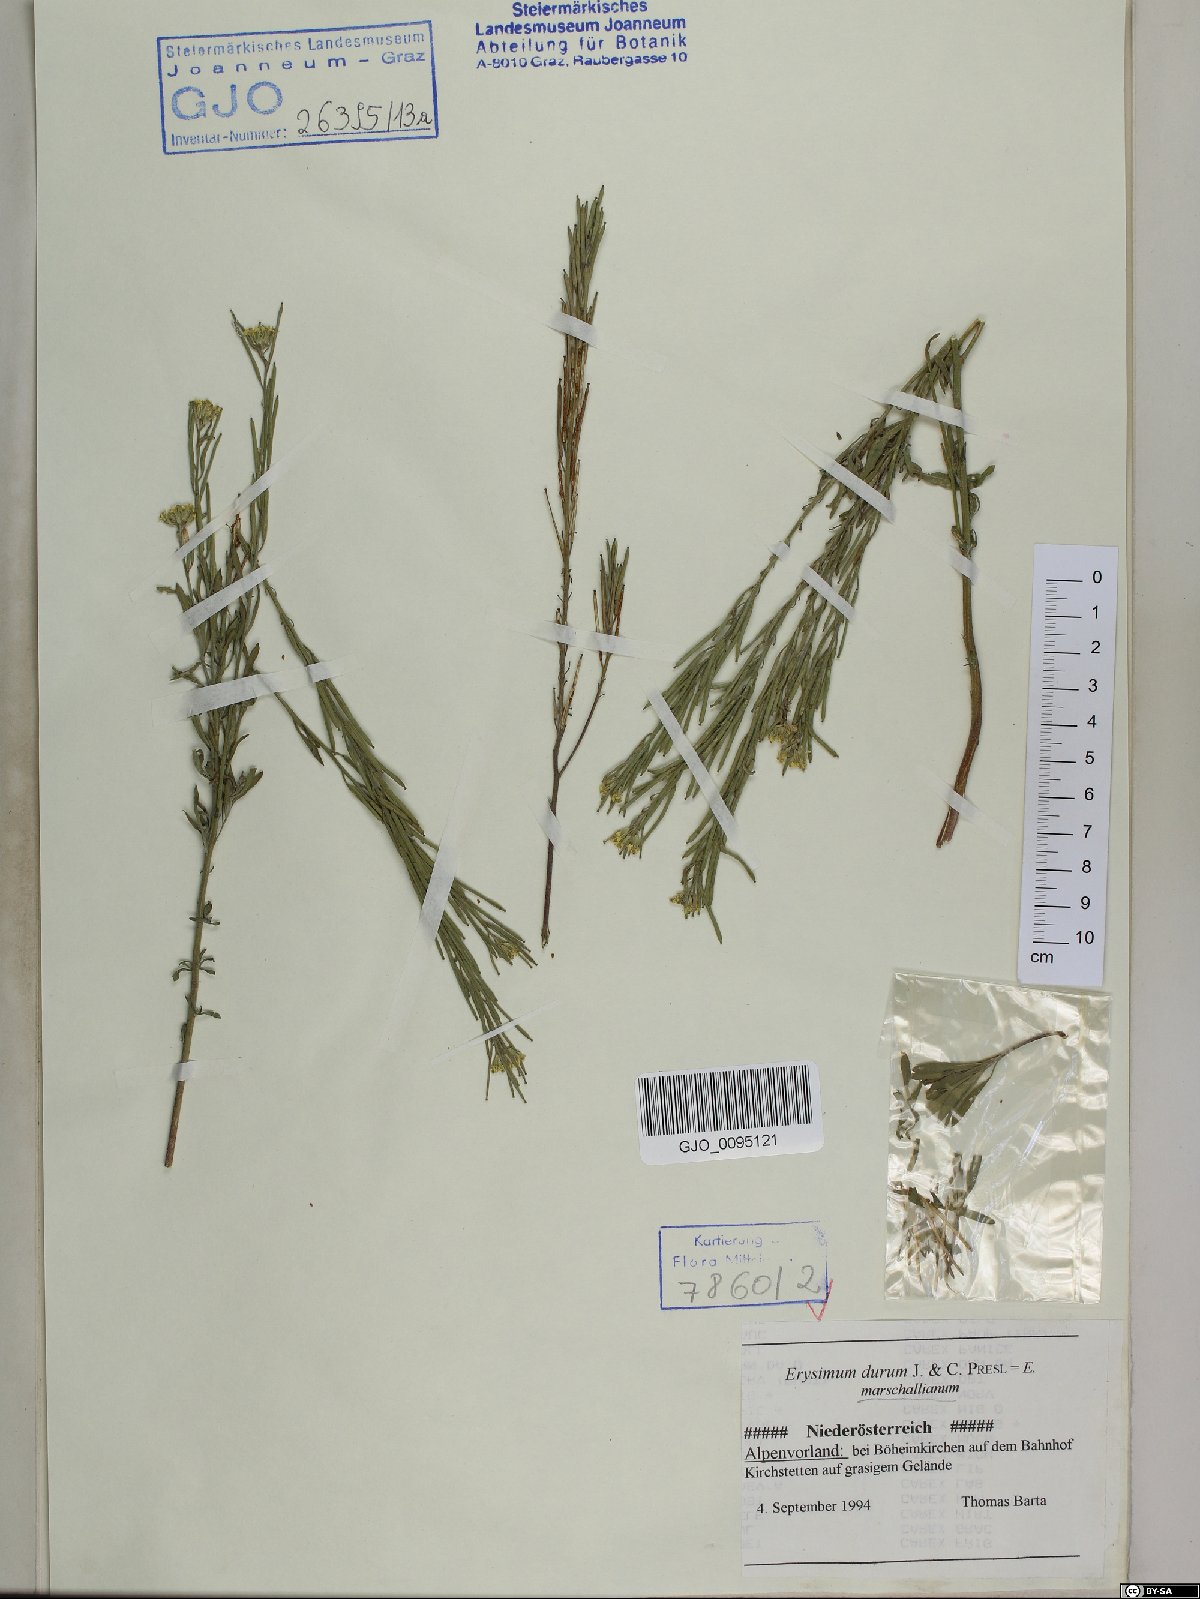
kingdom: Plantae
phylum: Tracheophyta
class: Magnoliopsida
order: Brassicales
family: Brassicaceae
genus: Erysimum
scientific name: Erysimum marschallianum
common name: Hard wallflower
